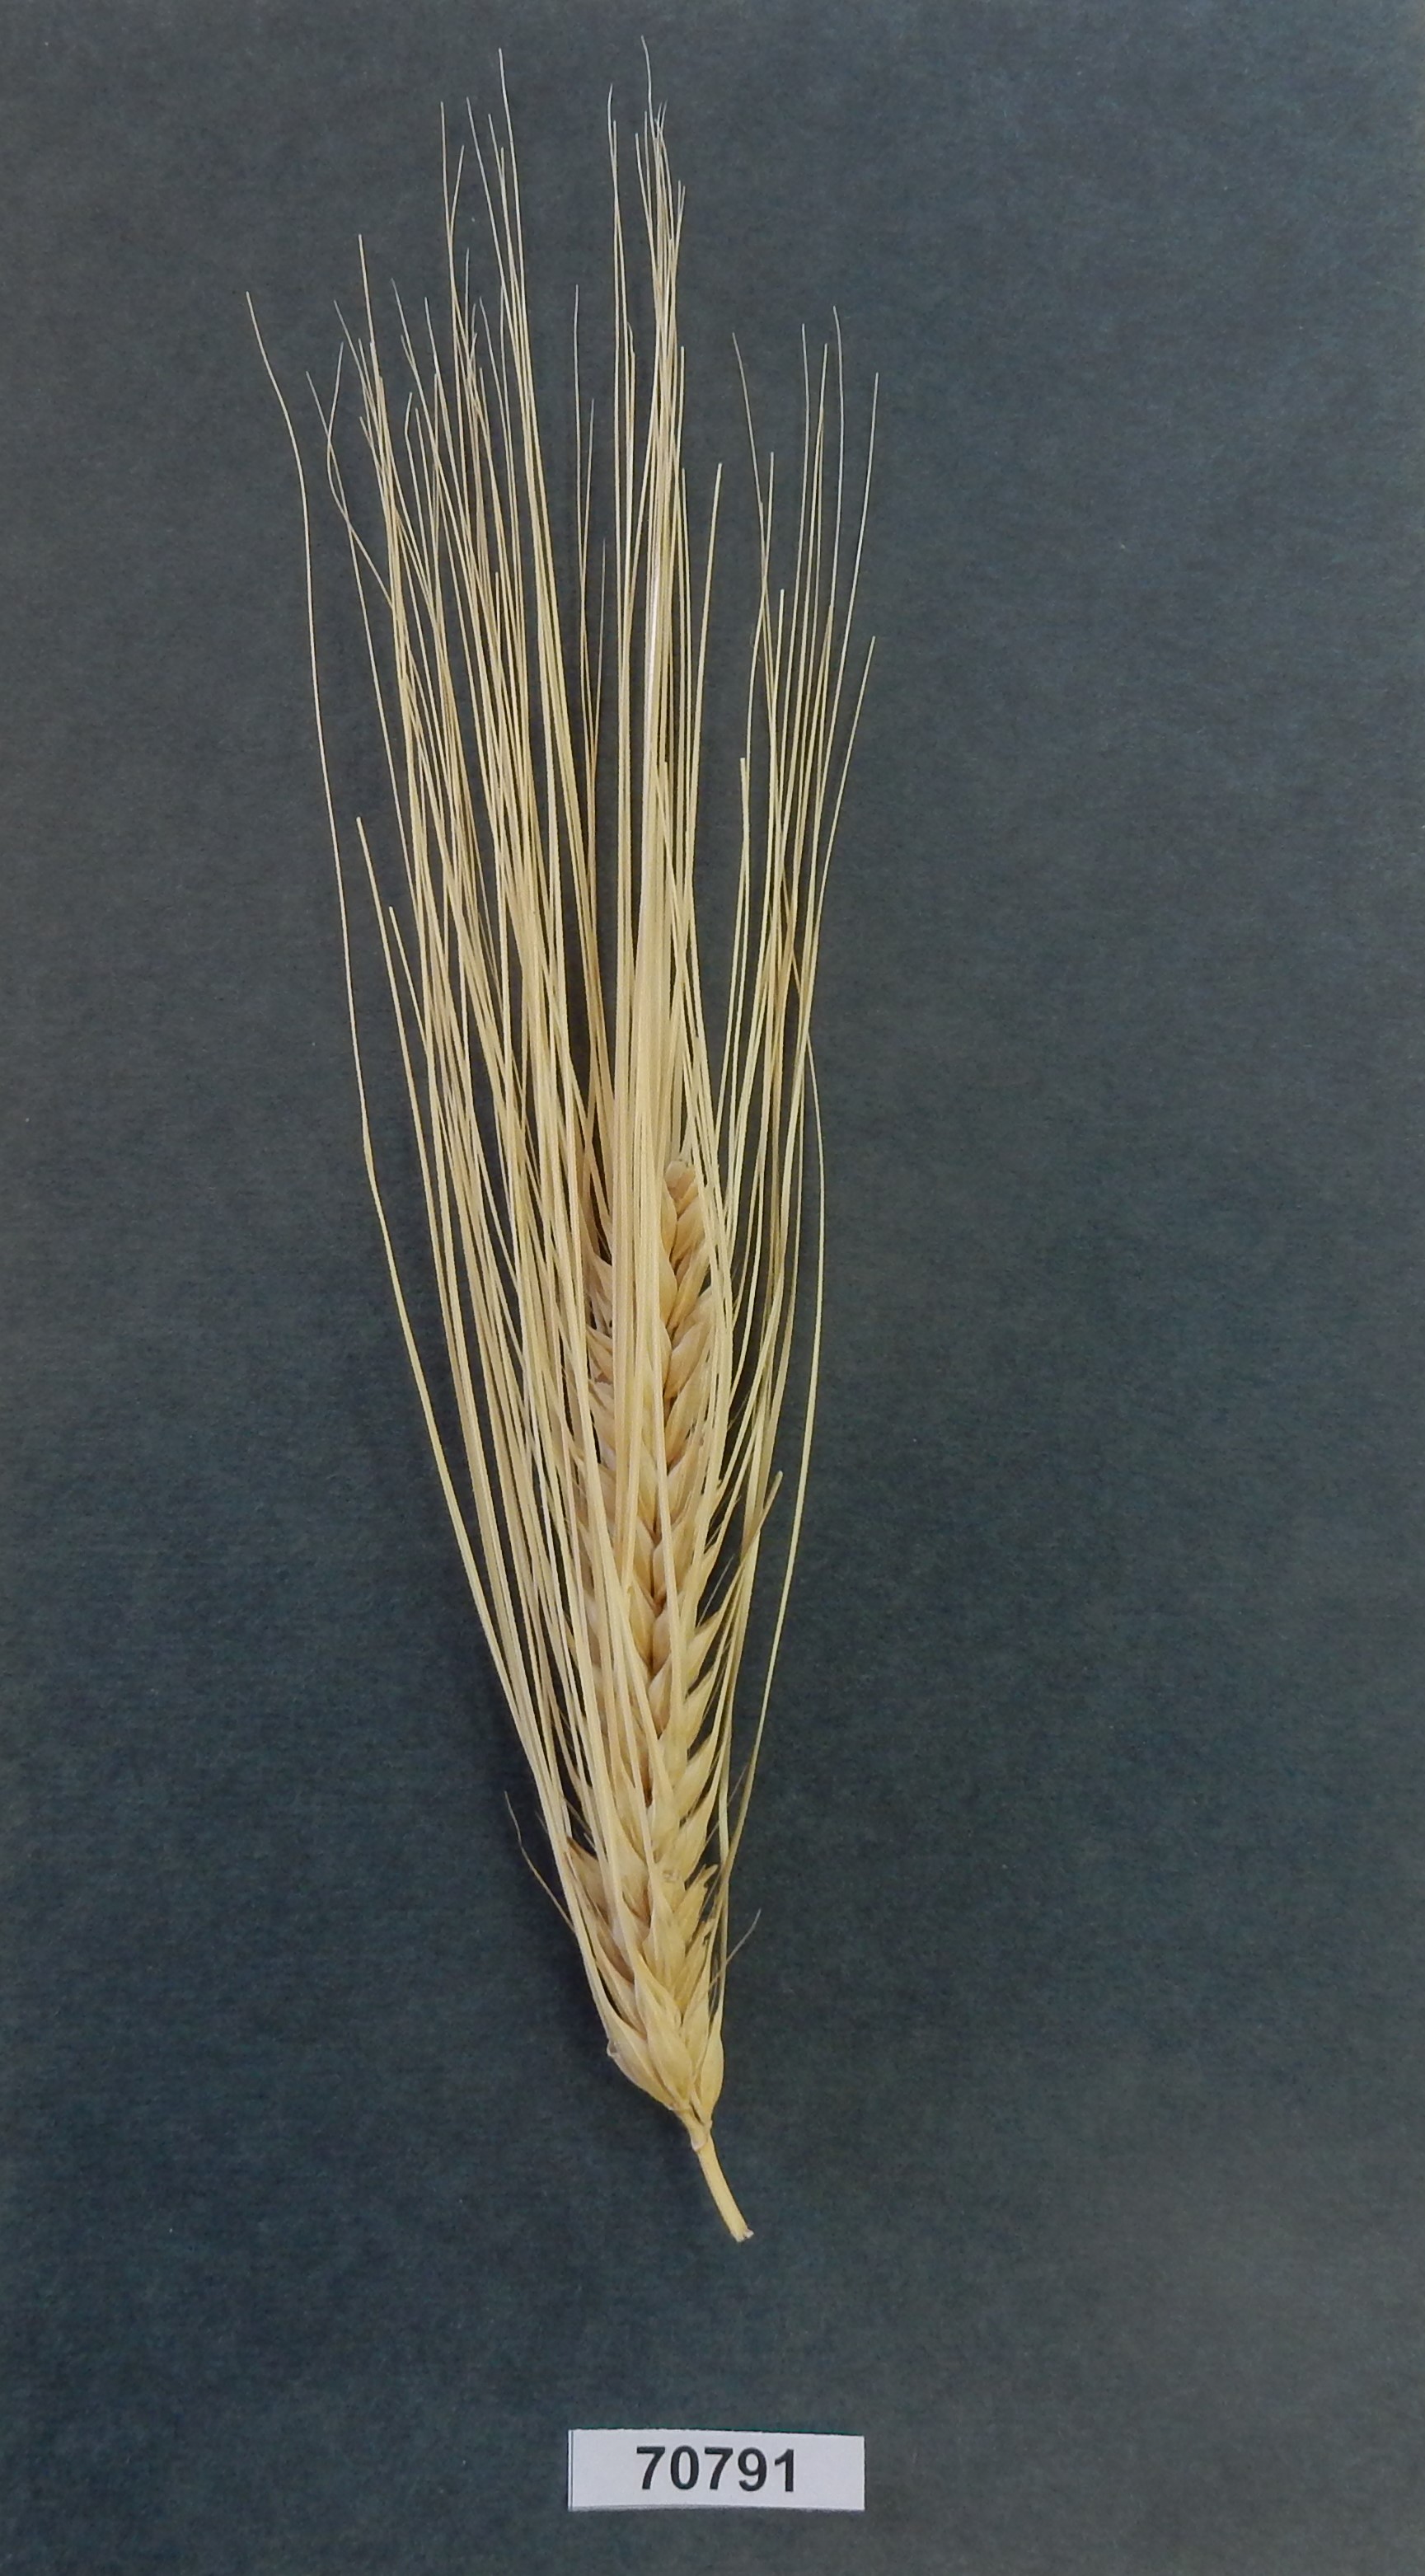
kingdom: Plantae
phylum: Tracheophyta
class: Liliopsida
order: Poales
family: Poaceae
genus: Hordeum
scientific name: Hordeum vulgare
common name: Barley
